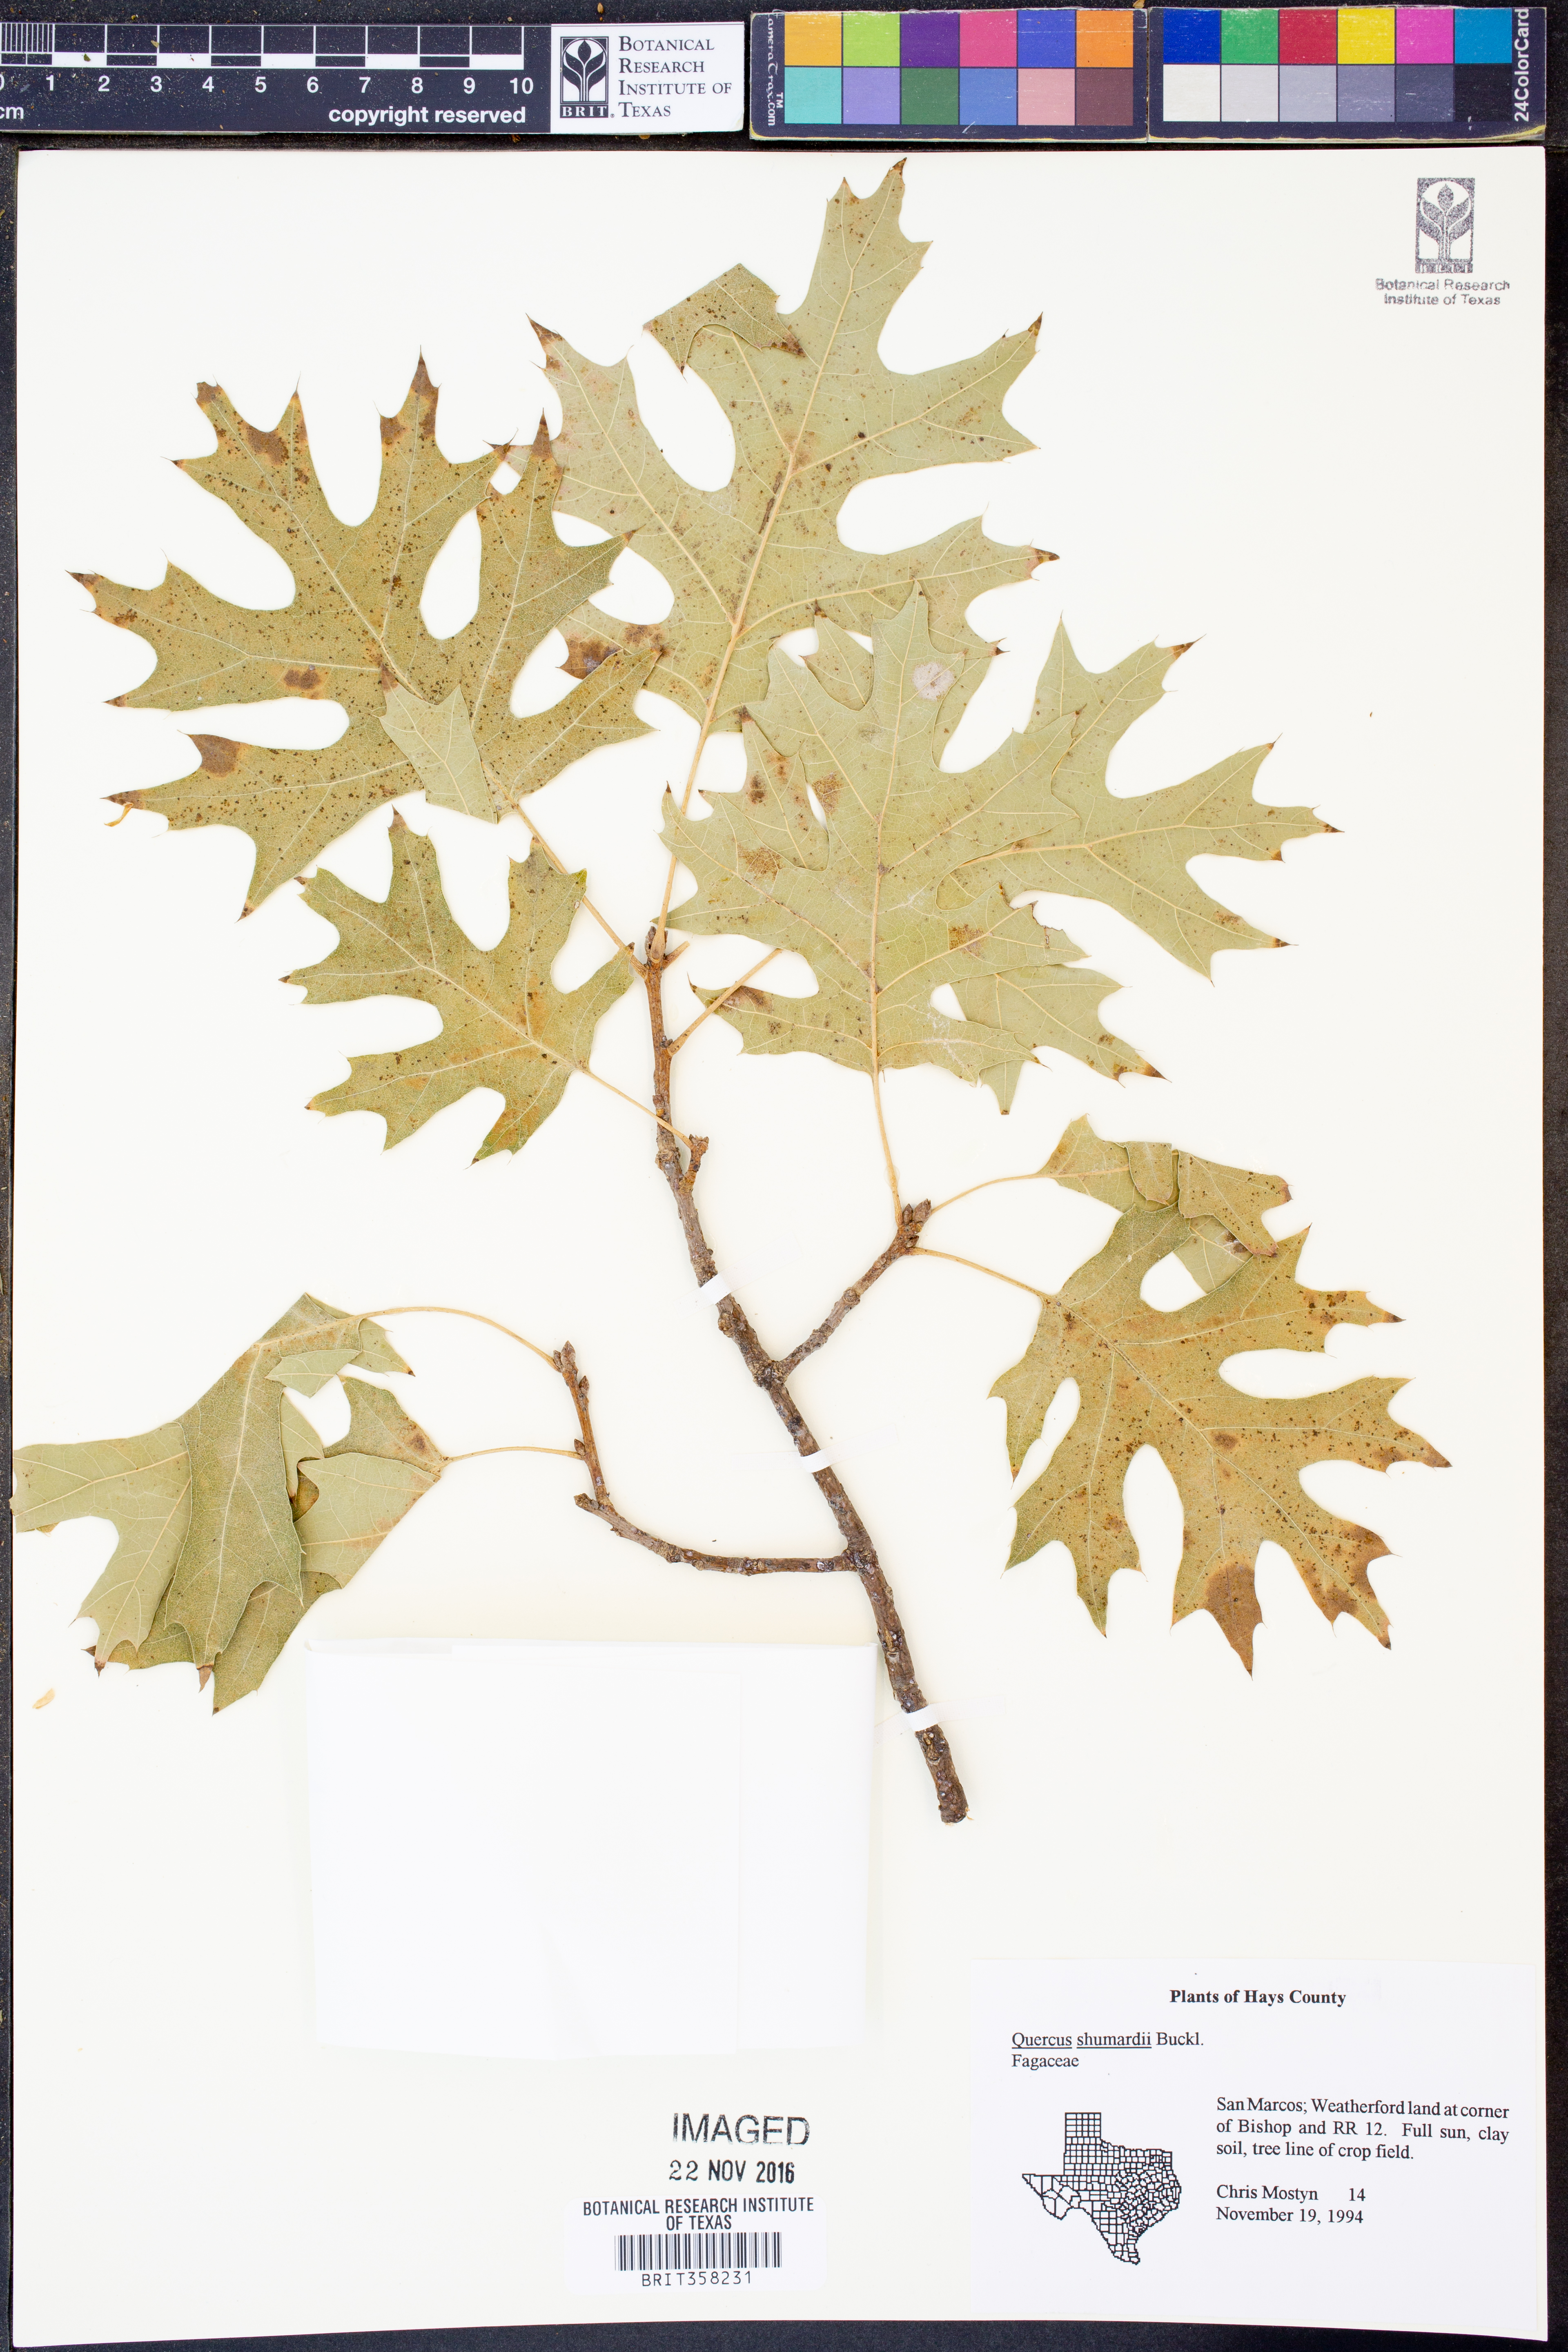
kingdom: Plantae
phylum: Tracheophyta
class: Magnoliopsida
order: Fagales
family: Fagaceae
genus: Quercus
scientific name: Quercus shumardii
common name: Shumard oak
